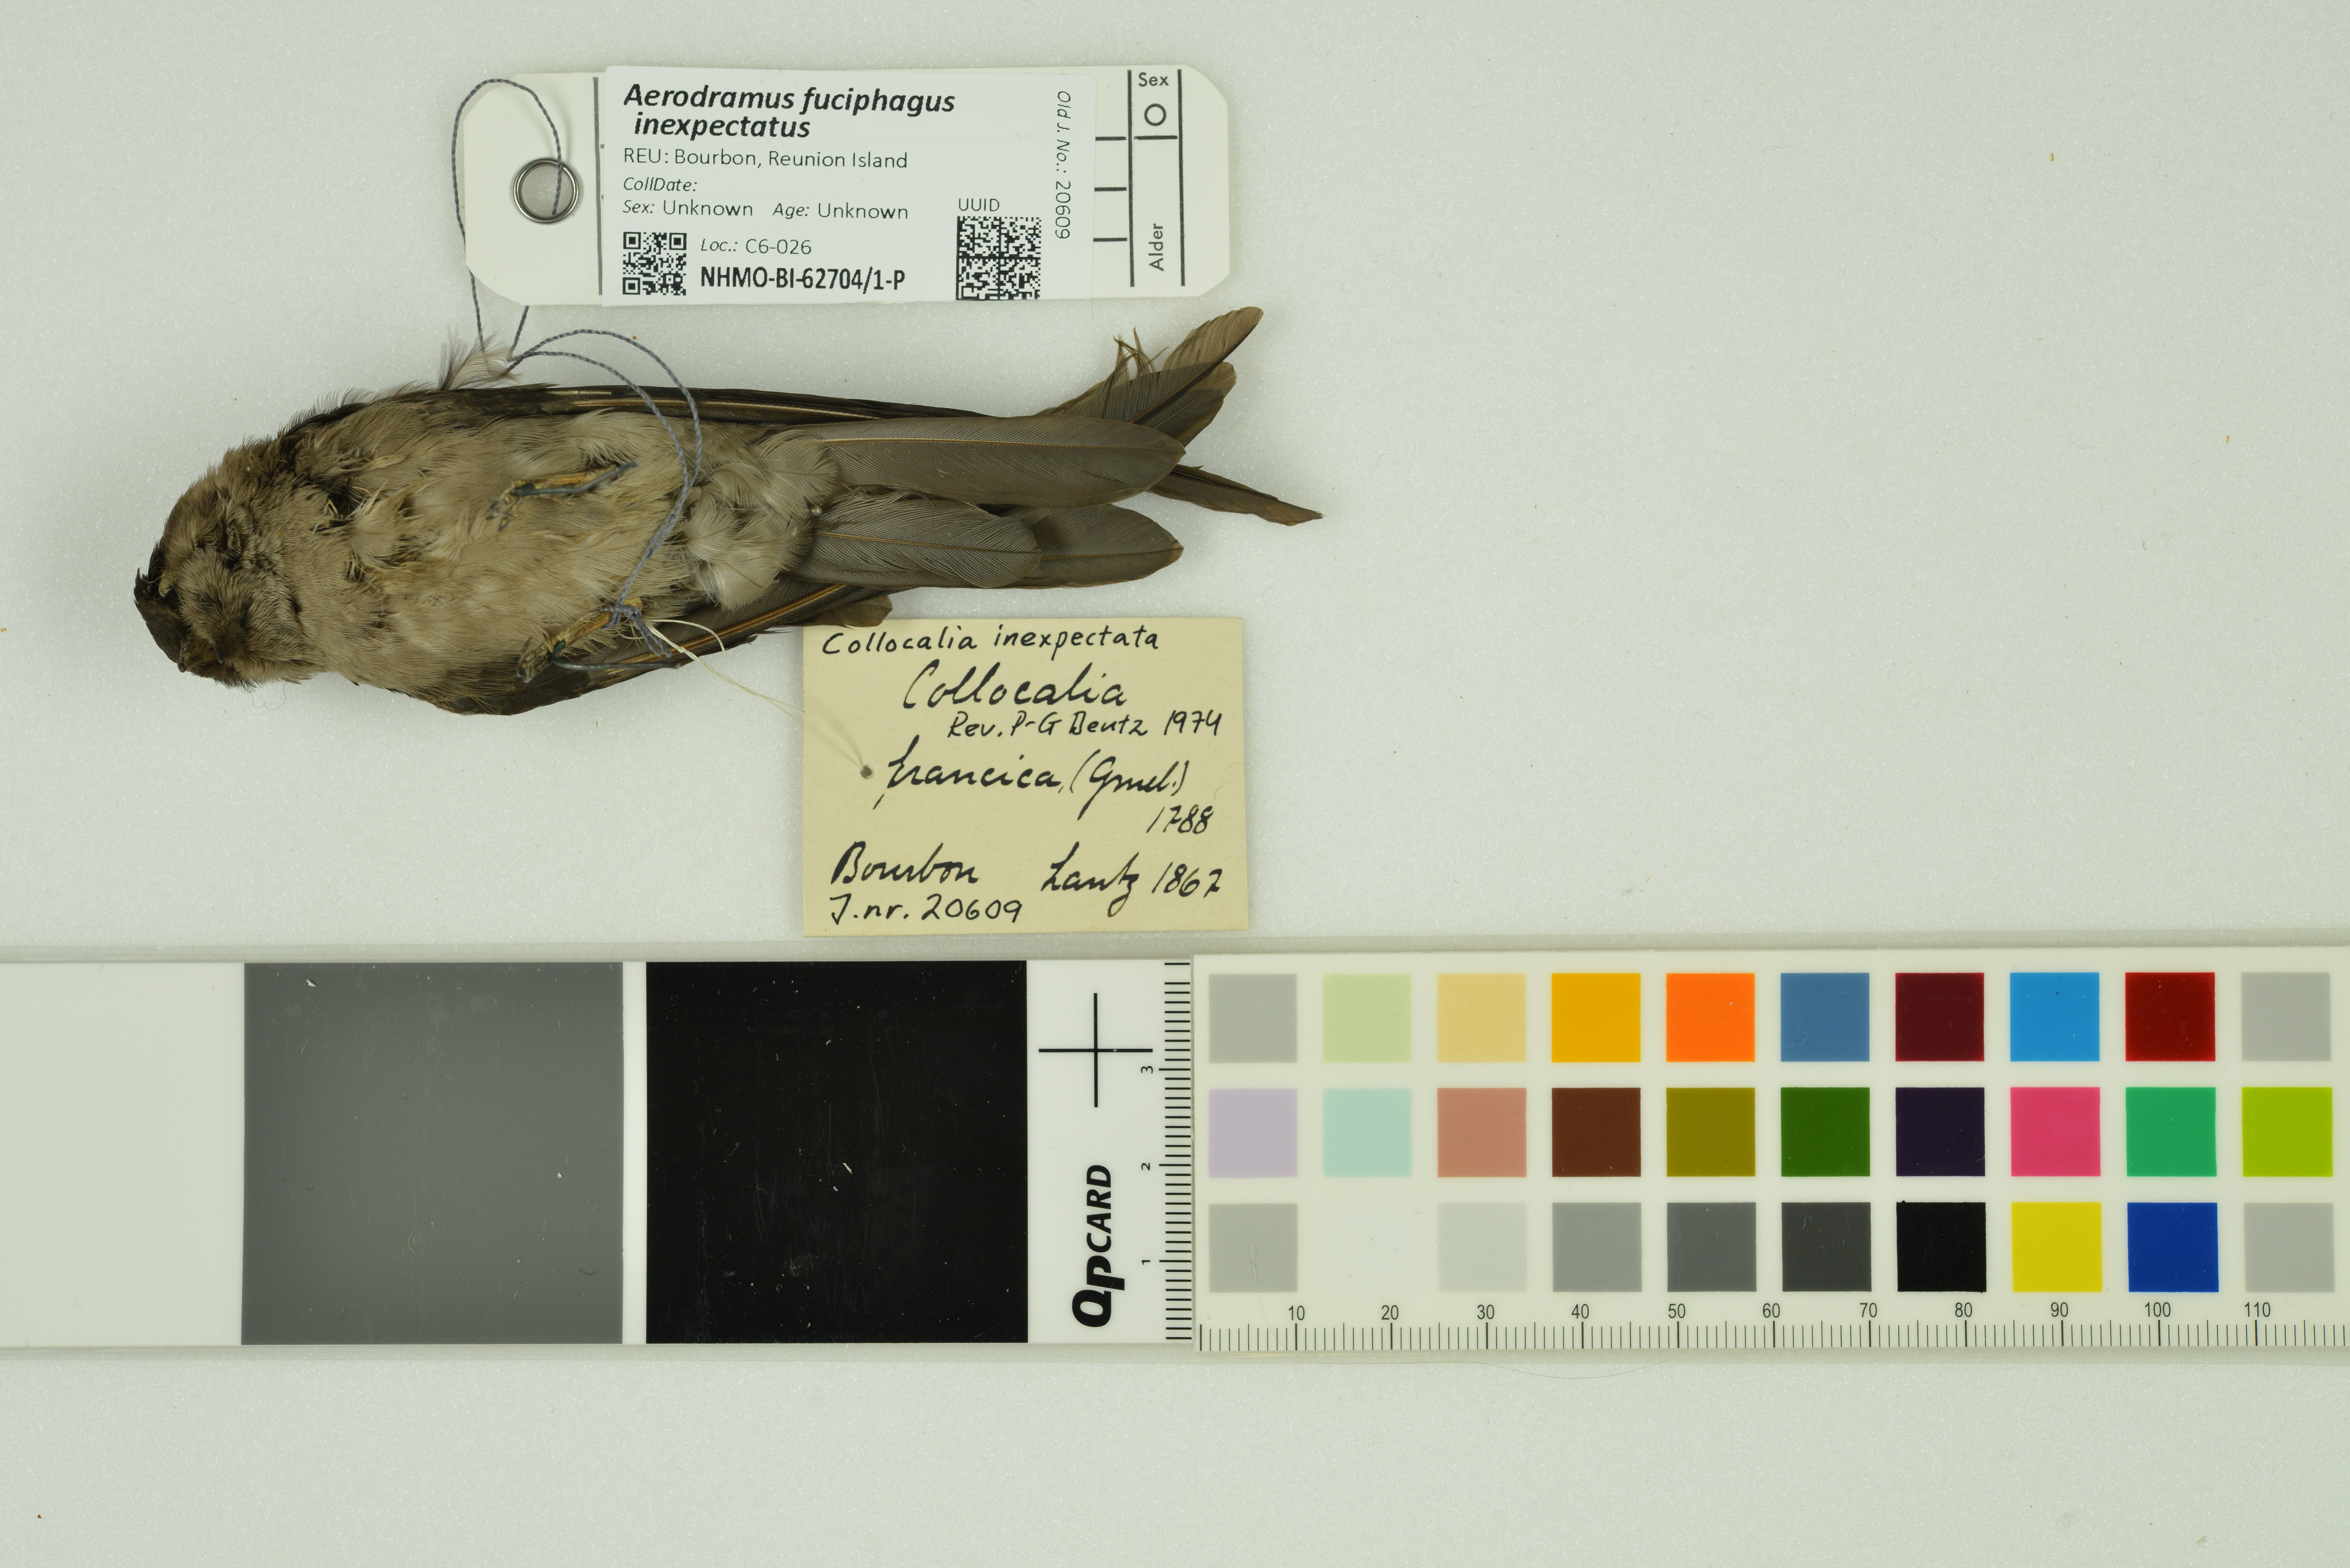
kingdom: Animalia
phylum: Chordata
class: Aves
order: Apodiformes
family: Apodidae
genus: Aerodramus
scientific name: Aerodramus fuciphagus
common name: Edible-nest swiftlet
